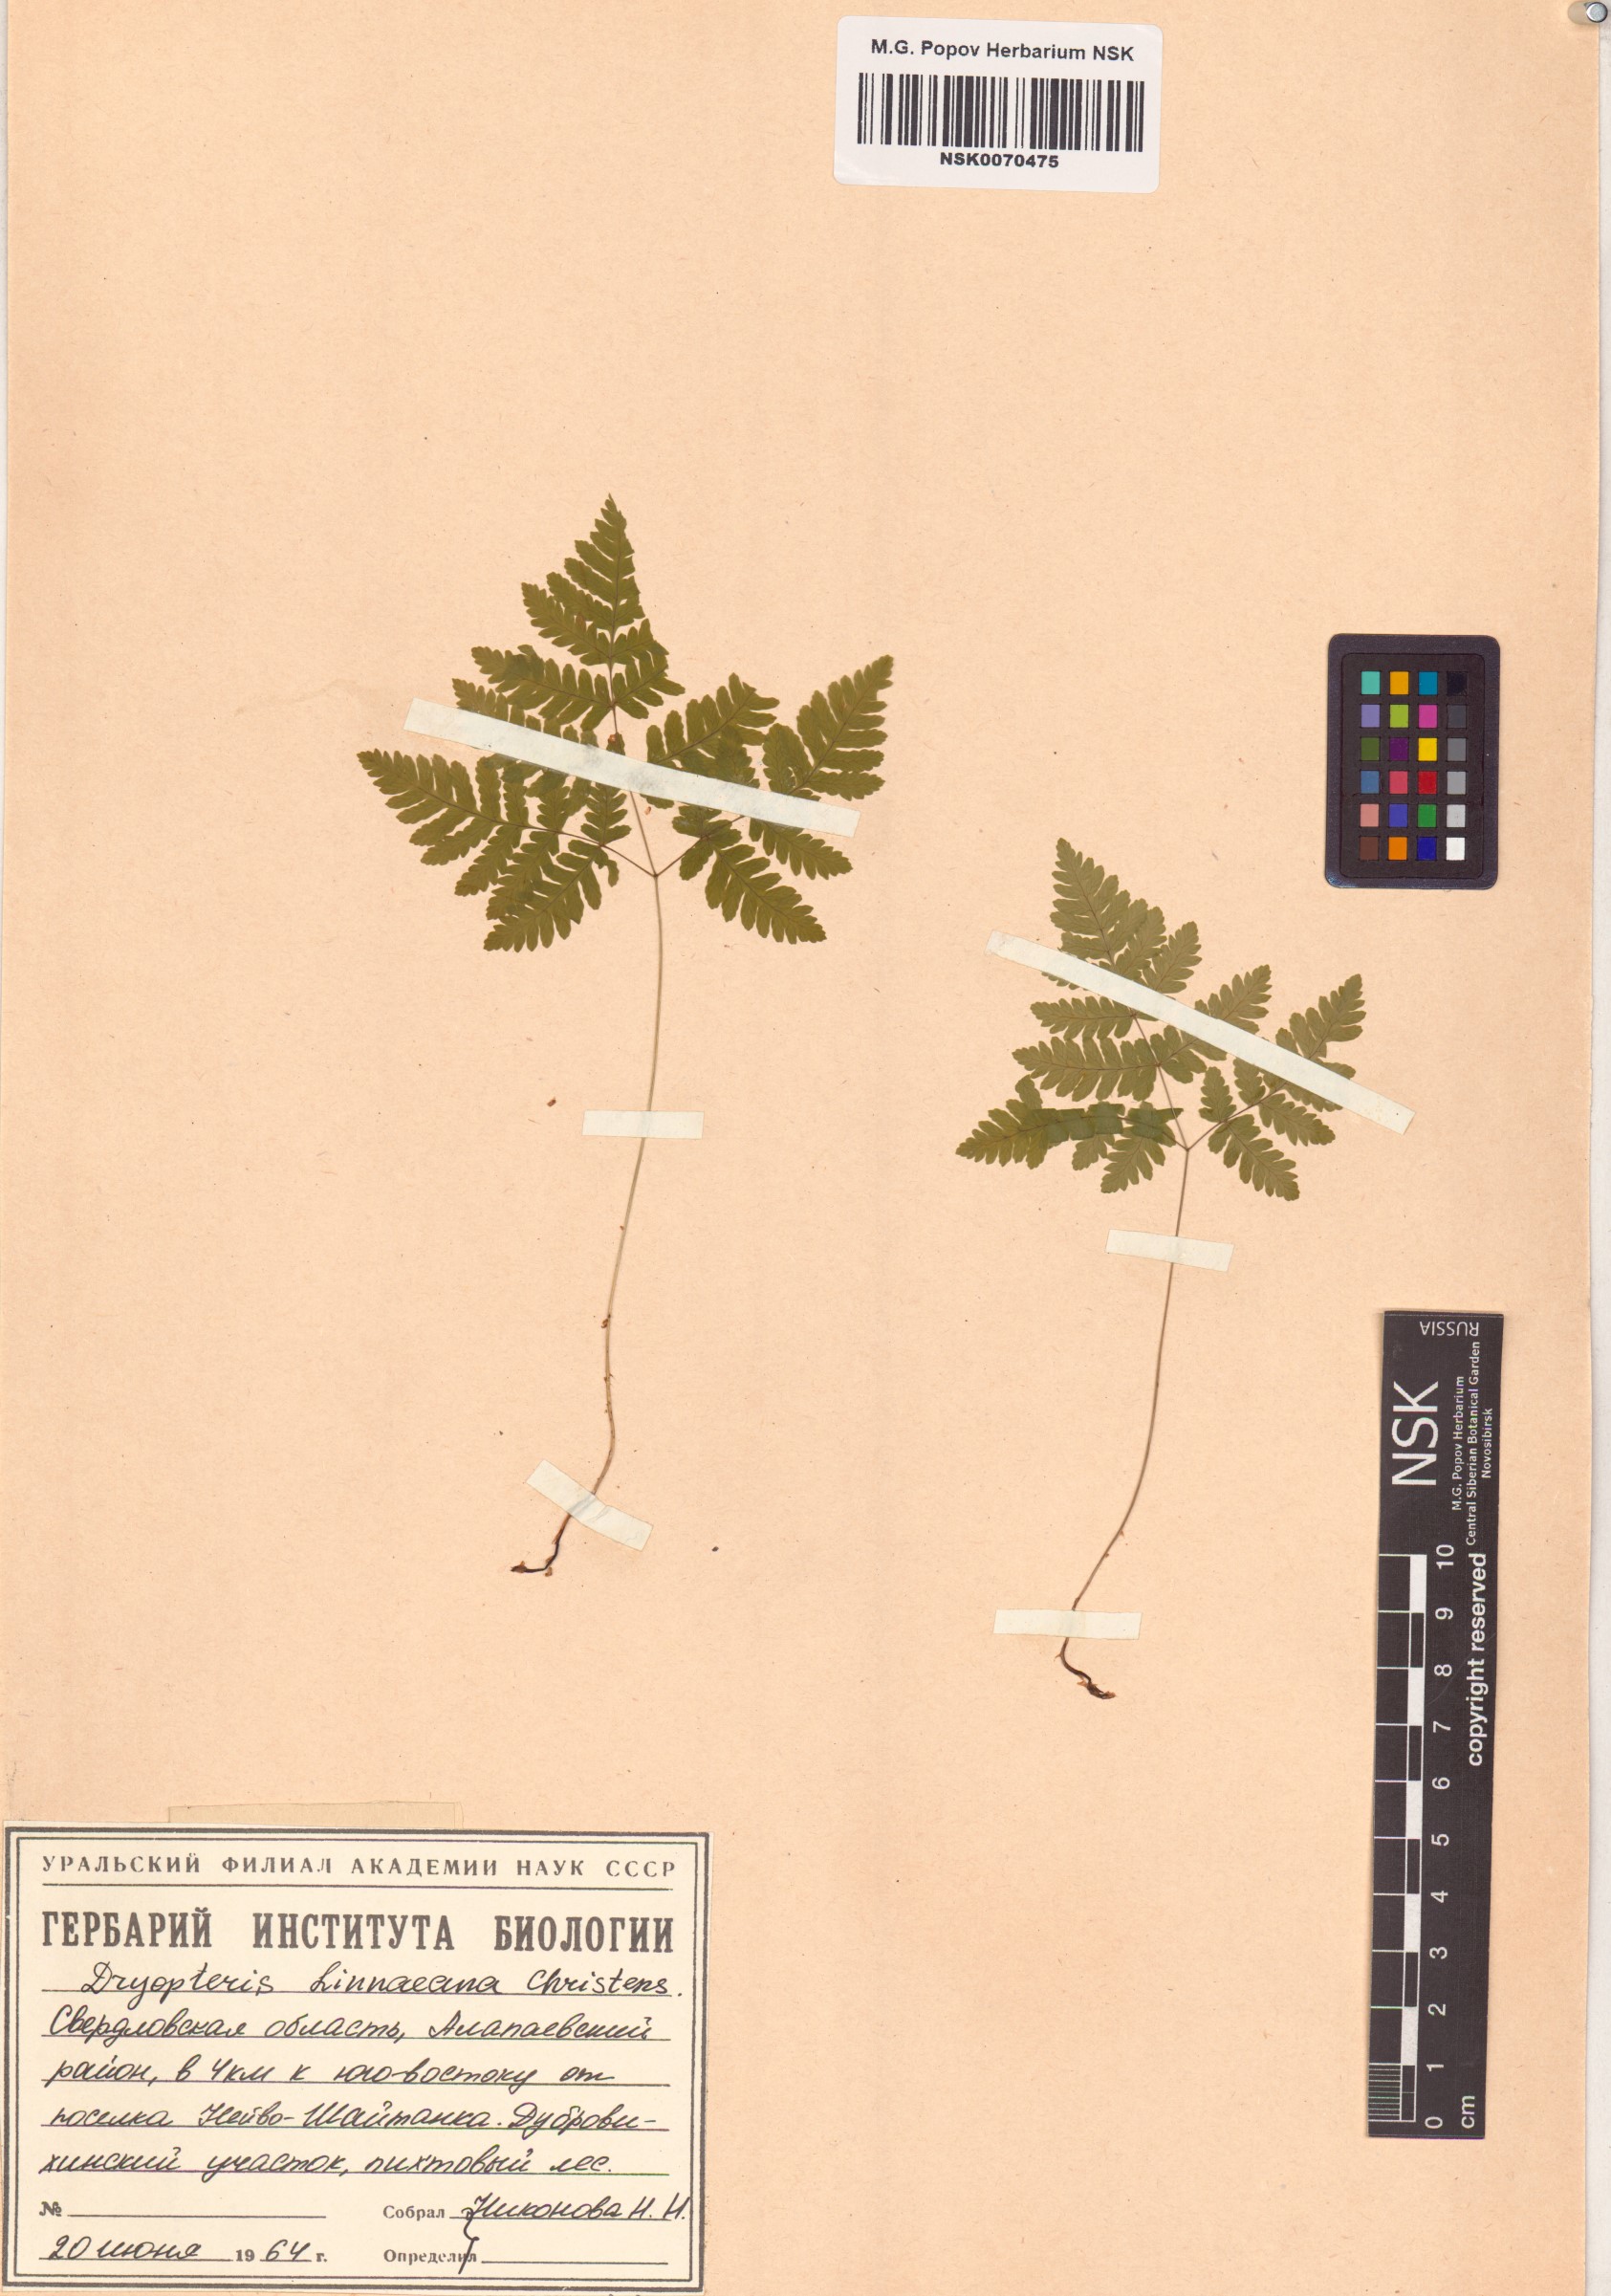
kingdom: Plantae
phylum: Tracheophyta
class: Polypodiopsida
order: Polypodiales
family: Cystopteridaceae
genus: Gymnocarpium
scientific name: Gymnocarpium dryopteris
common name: Oak fern
